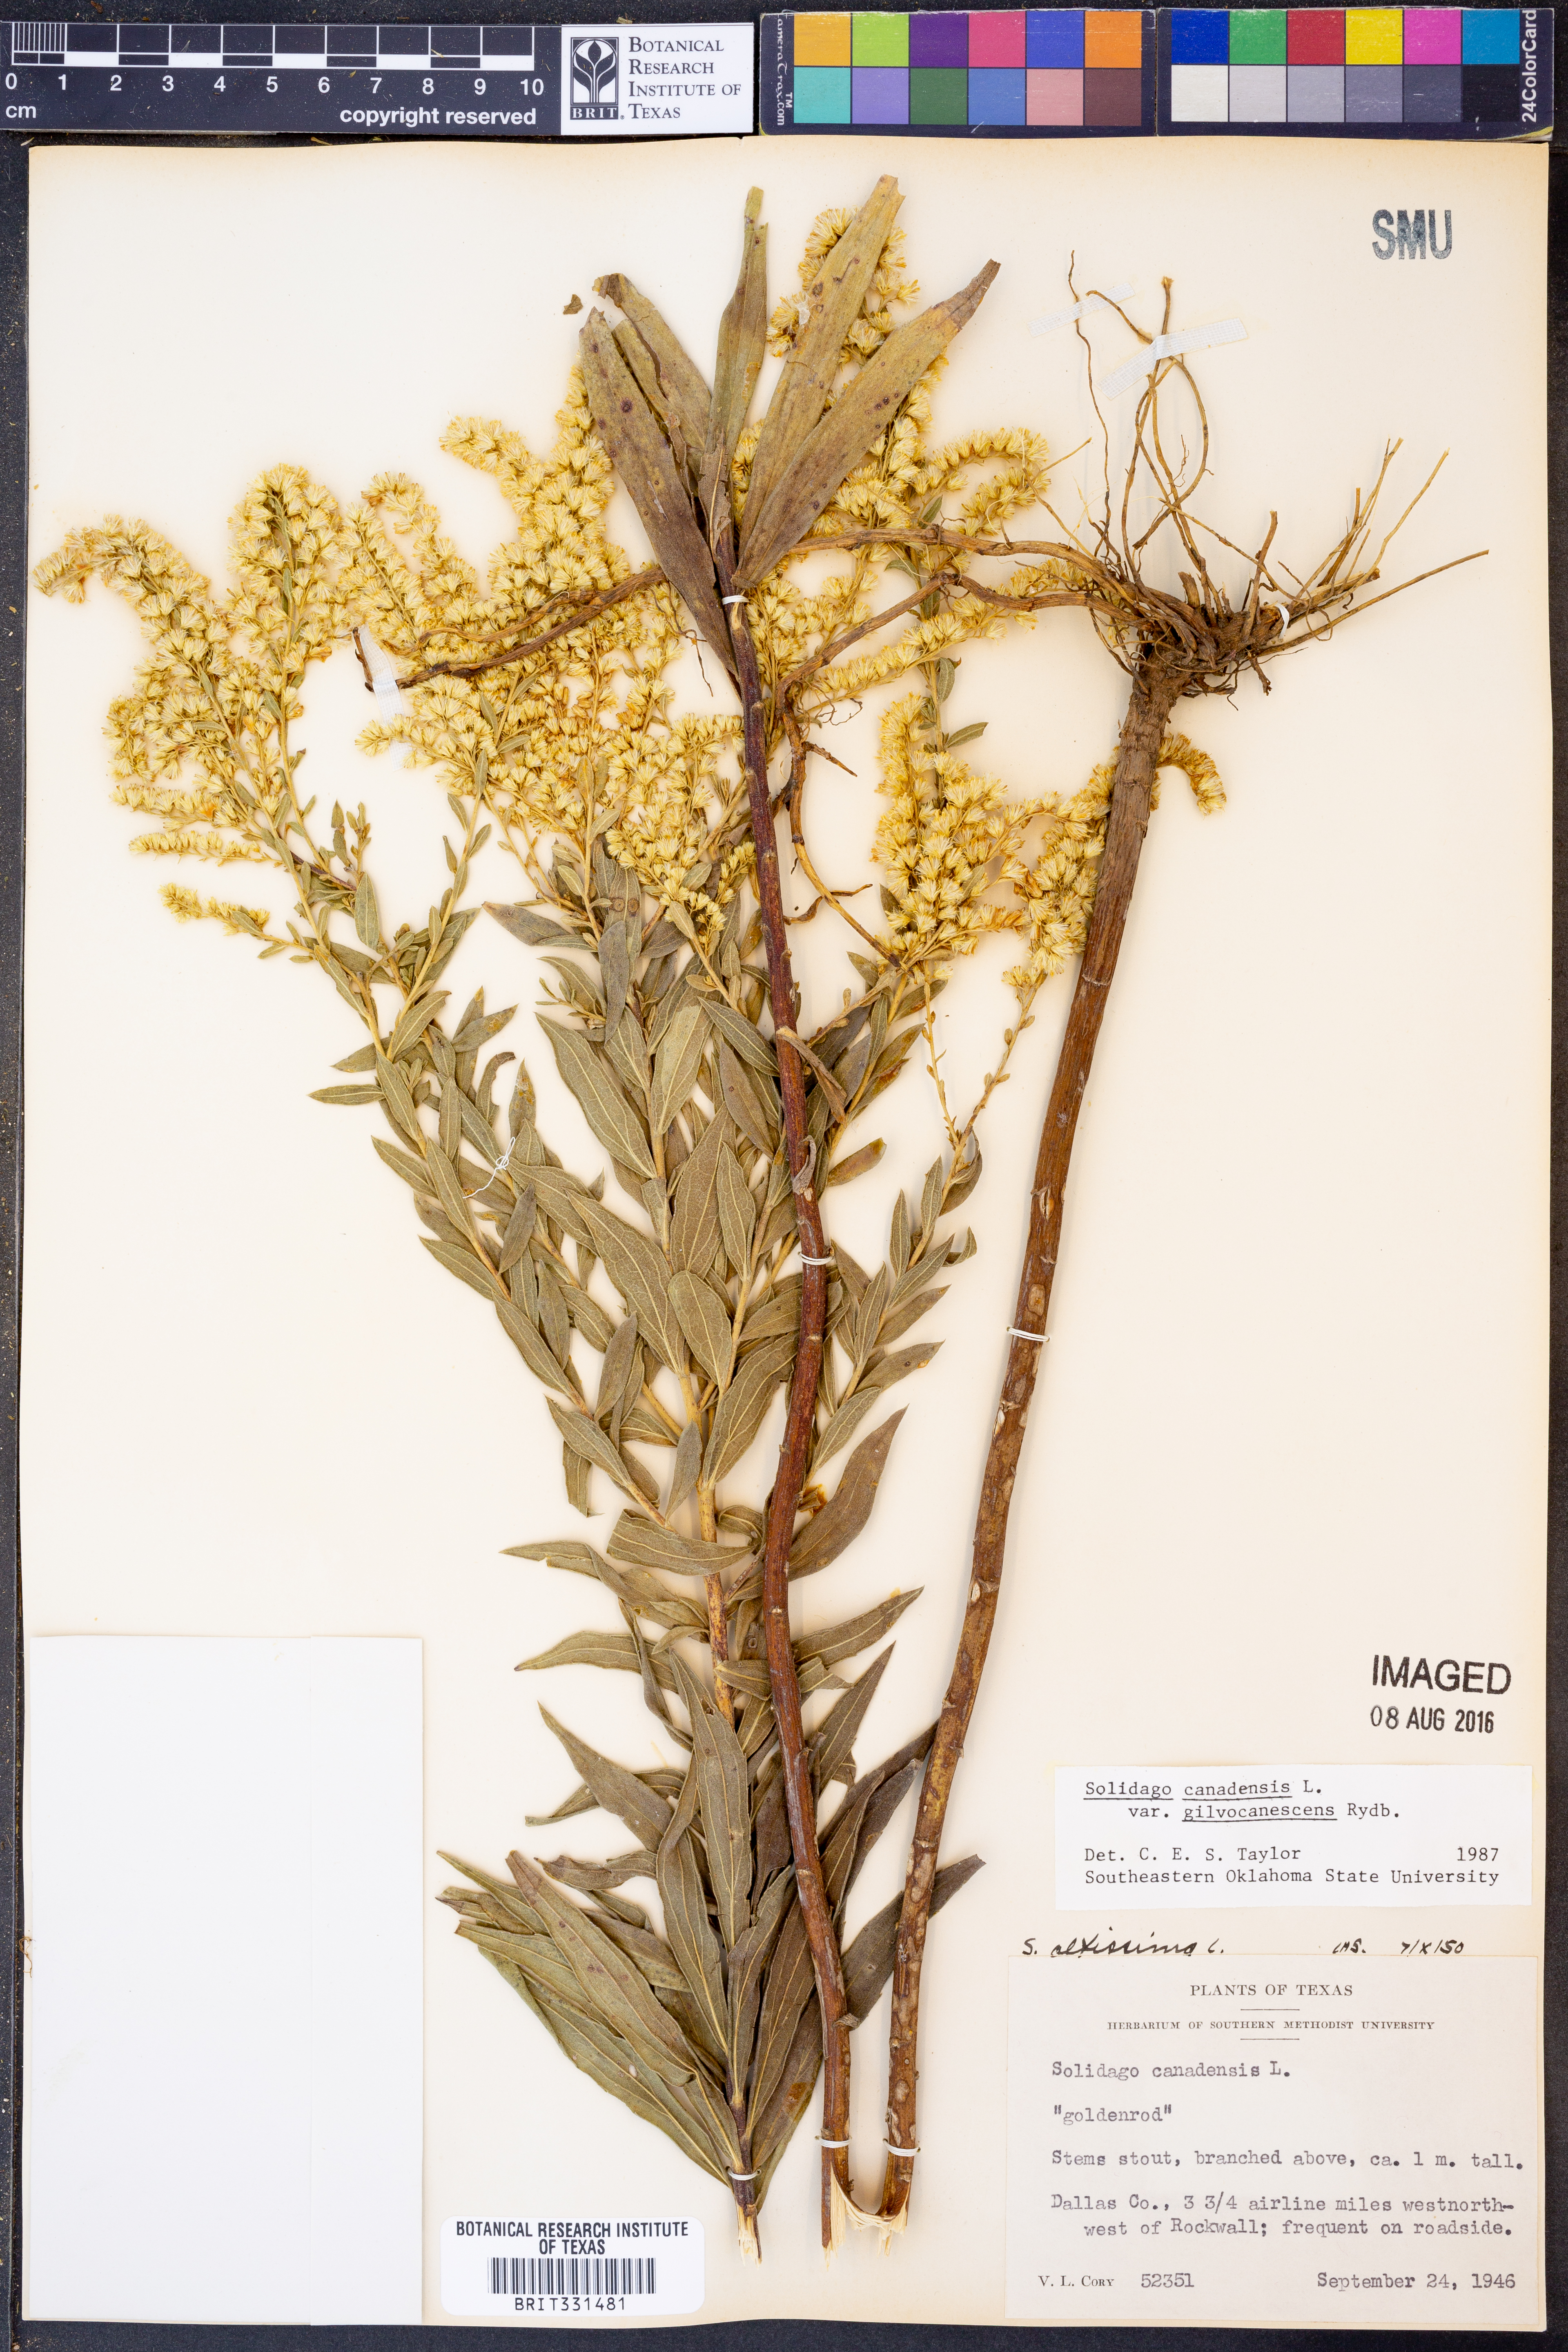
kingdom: Plantae
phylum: Tracheophyta
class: Magnoliopsida
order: Asterales
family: Asteraceae
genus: Solidago
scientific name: Solidago altissima
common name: Late goldenrod
